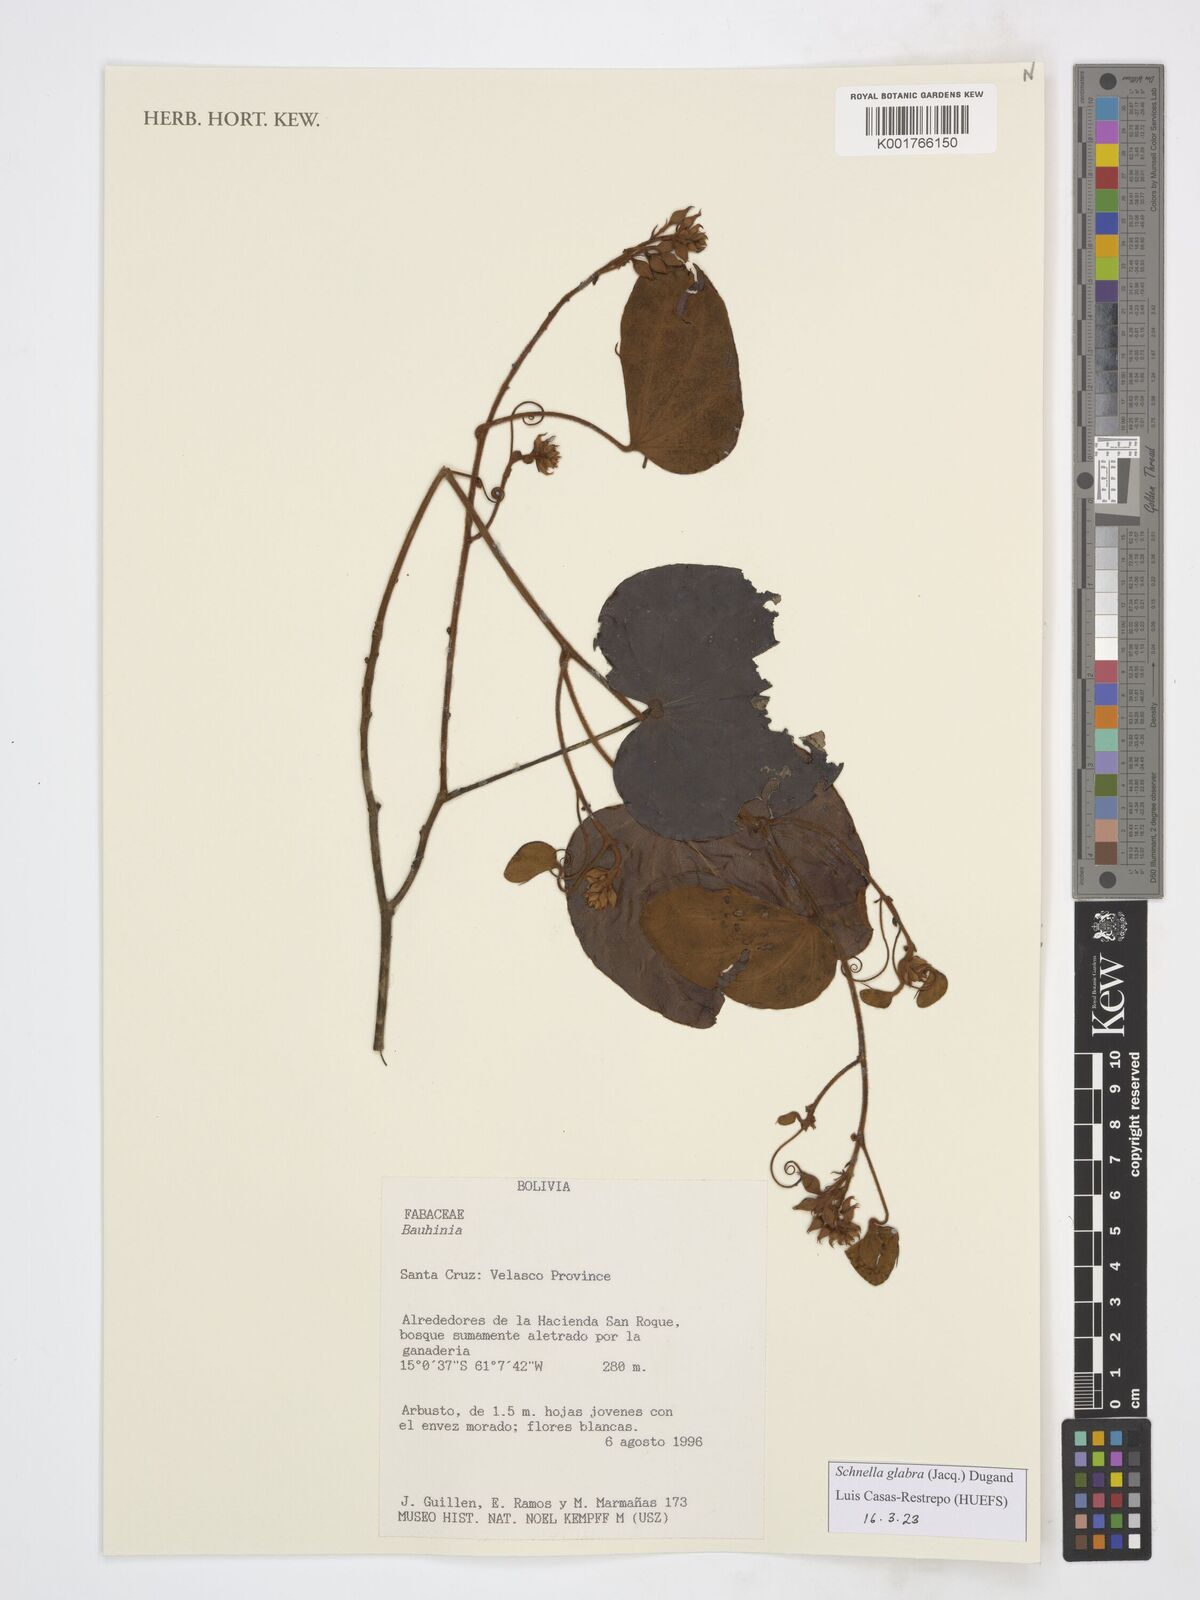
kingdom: Plantae
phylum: Tracheophyta
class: Magnoliopsida
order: Fabales
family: Fabaceae
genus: Schnella
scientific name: Schnella glabra
